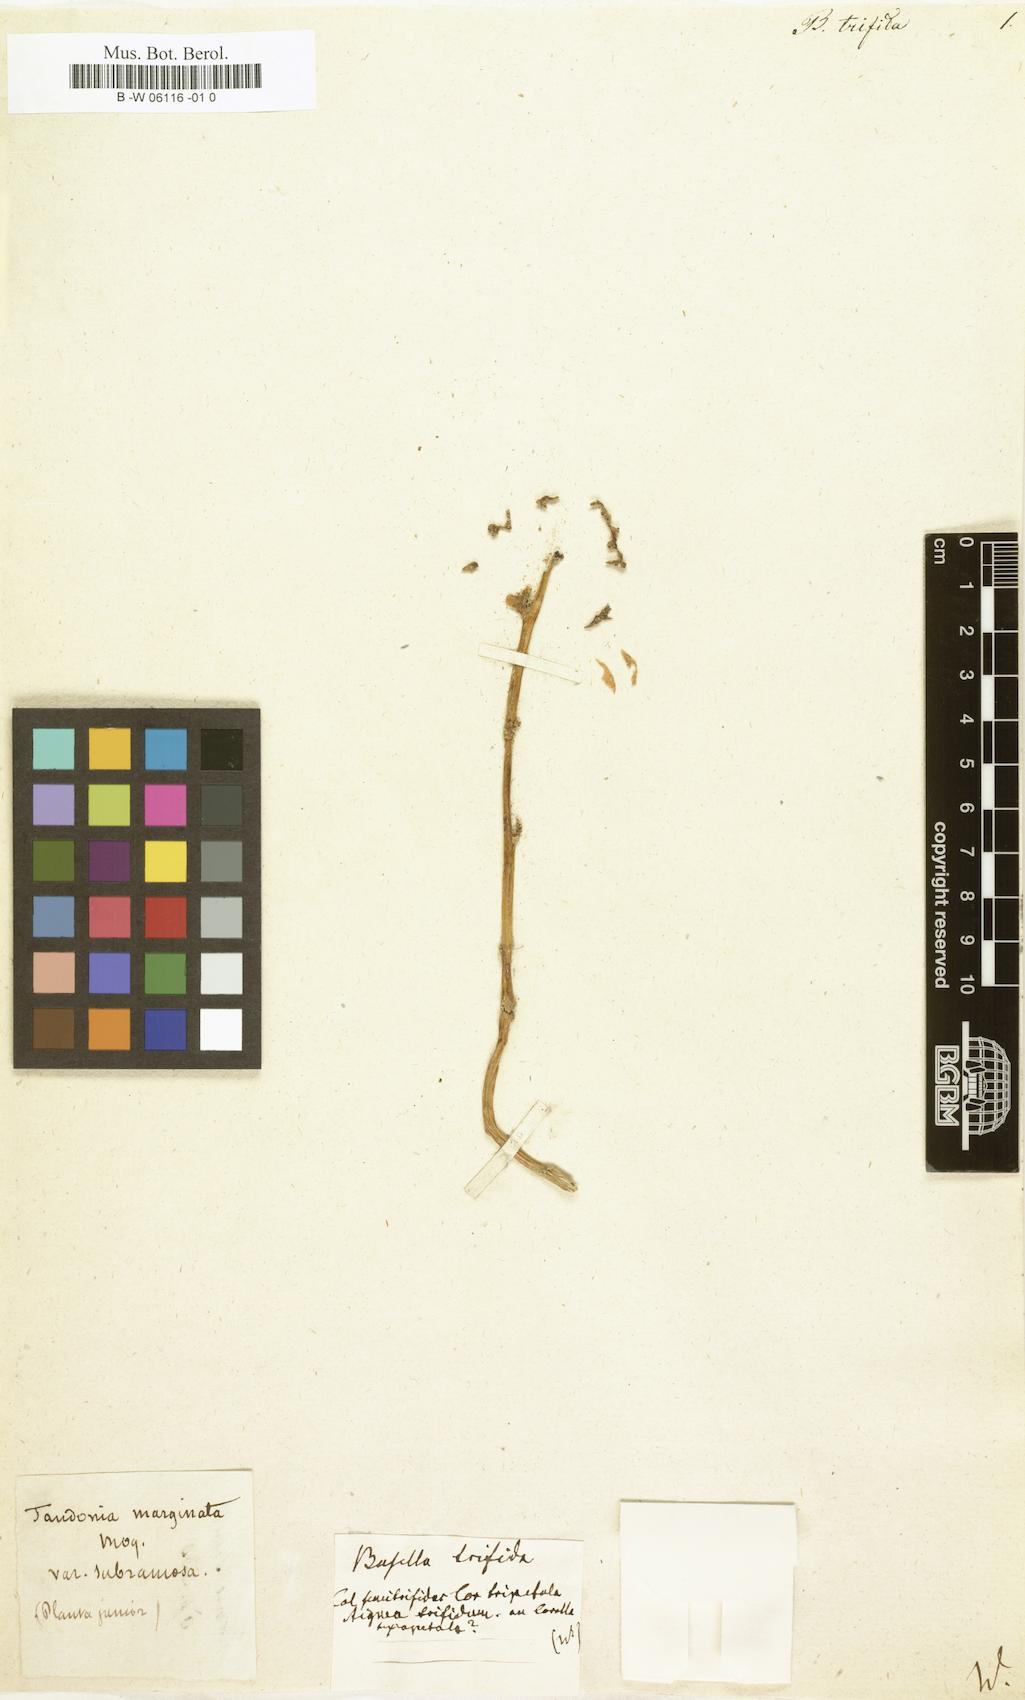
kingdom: Plantae
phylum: Tracheophyta
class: Magnoliopsida
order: Caryophyllales
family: Basellaceae
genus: Anredera
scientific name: Anredera marginata
